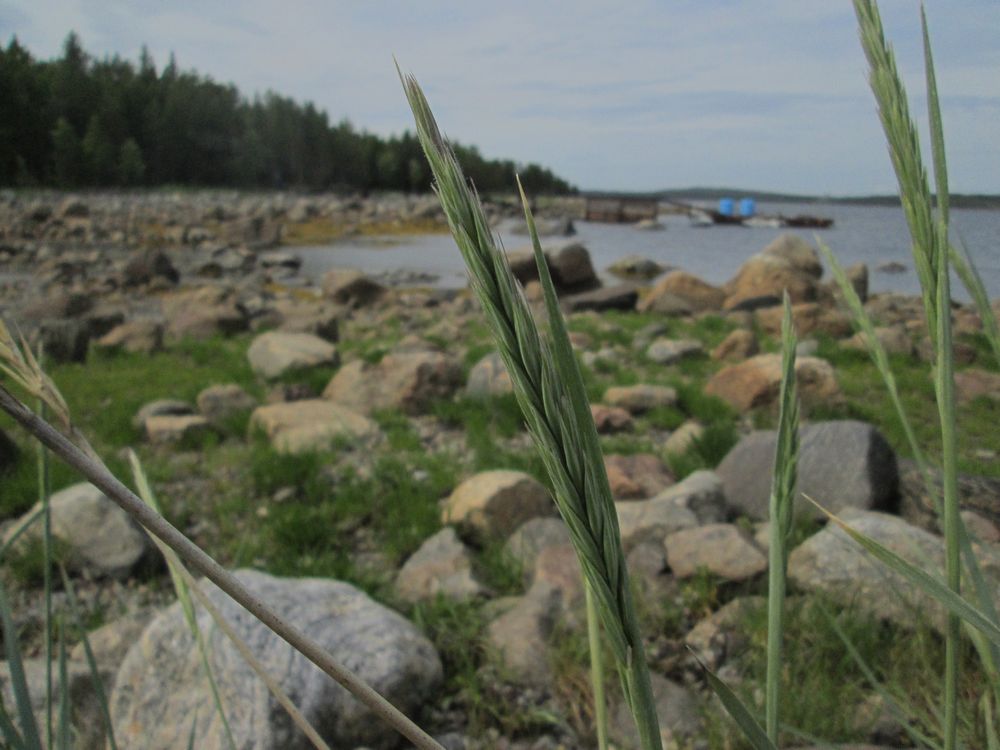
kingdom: Plantae
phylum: Tracheophyta
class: Liliopsida
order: Poales
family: Poaceae
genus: Leymus
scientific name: Leymus arenarius
